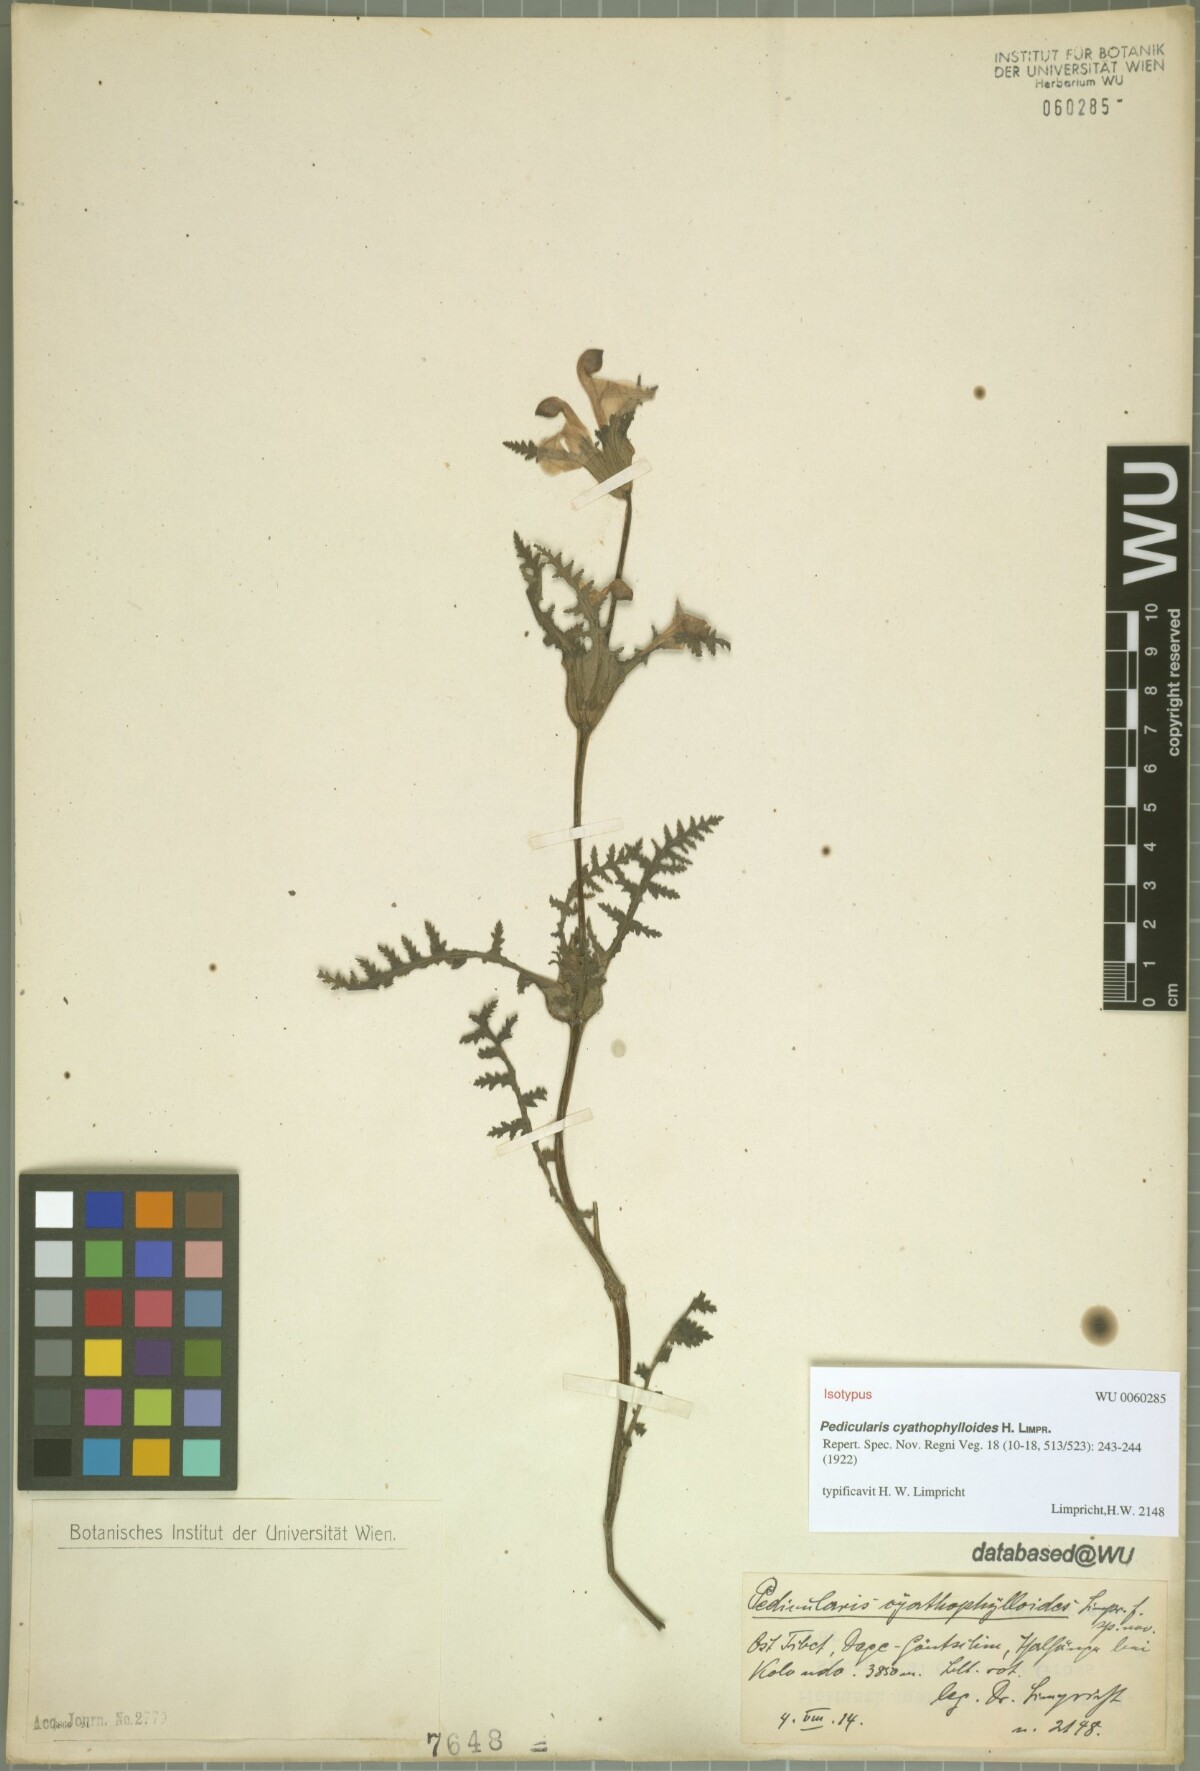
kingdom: Plantae
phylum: Tracheophyta
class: Magnoliopsida
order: Lamiales
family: Orobanchaceae
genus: Pedicularis
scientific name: Pedicularis cyathophylloides
